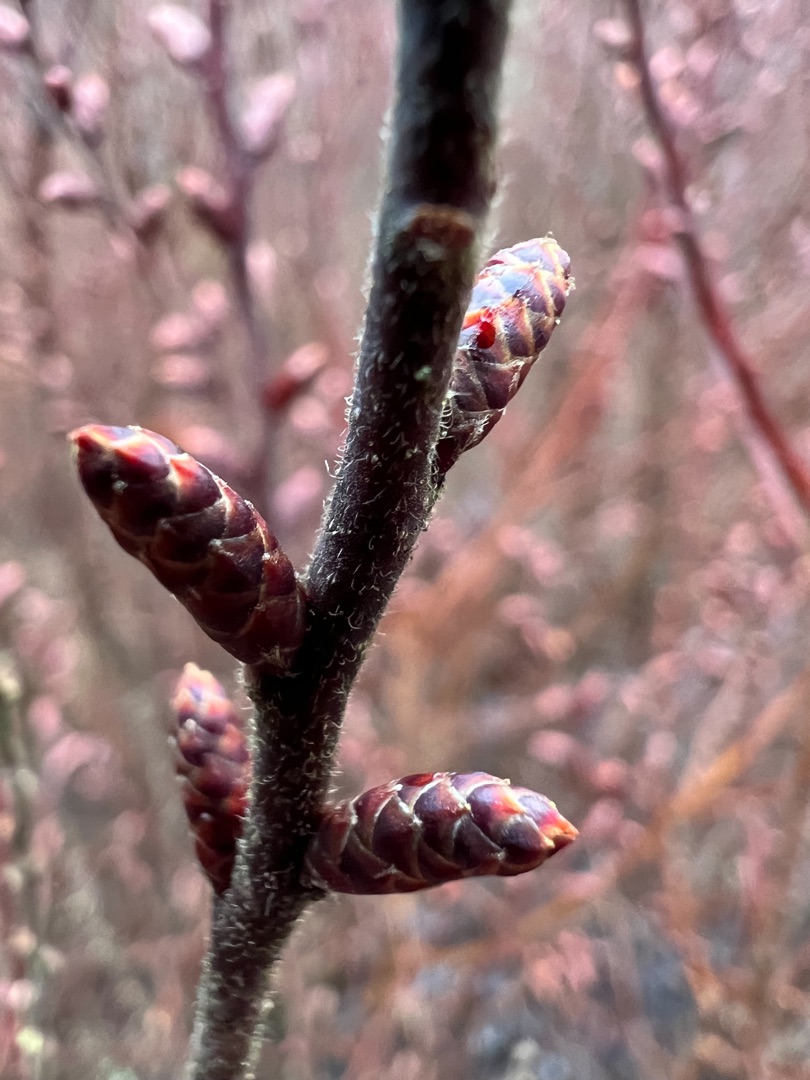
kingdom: Plantae
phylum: Tracheophyta
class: Magnoliopsida
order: Fagales
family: Myricaceae
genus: Myrica
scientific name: Myrica gale
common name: Pors
